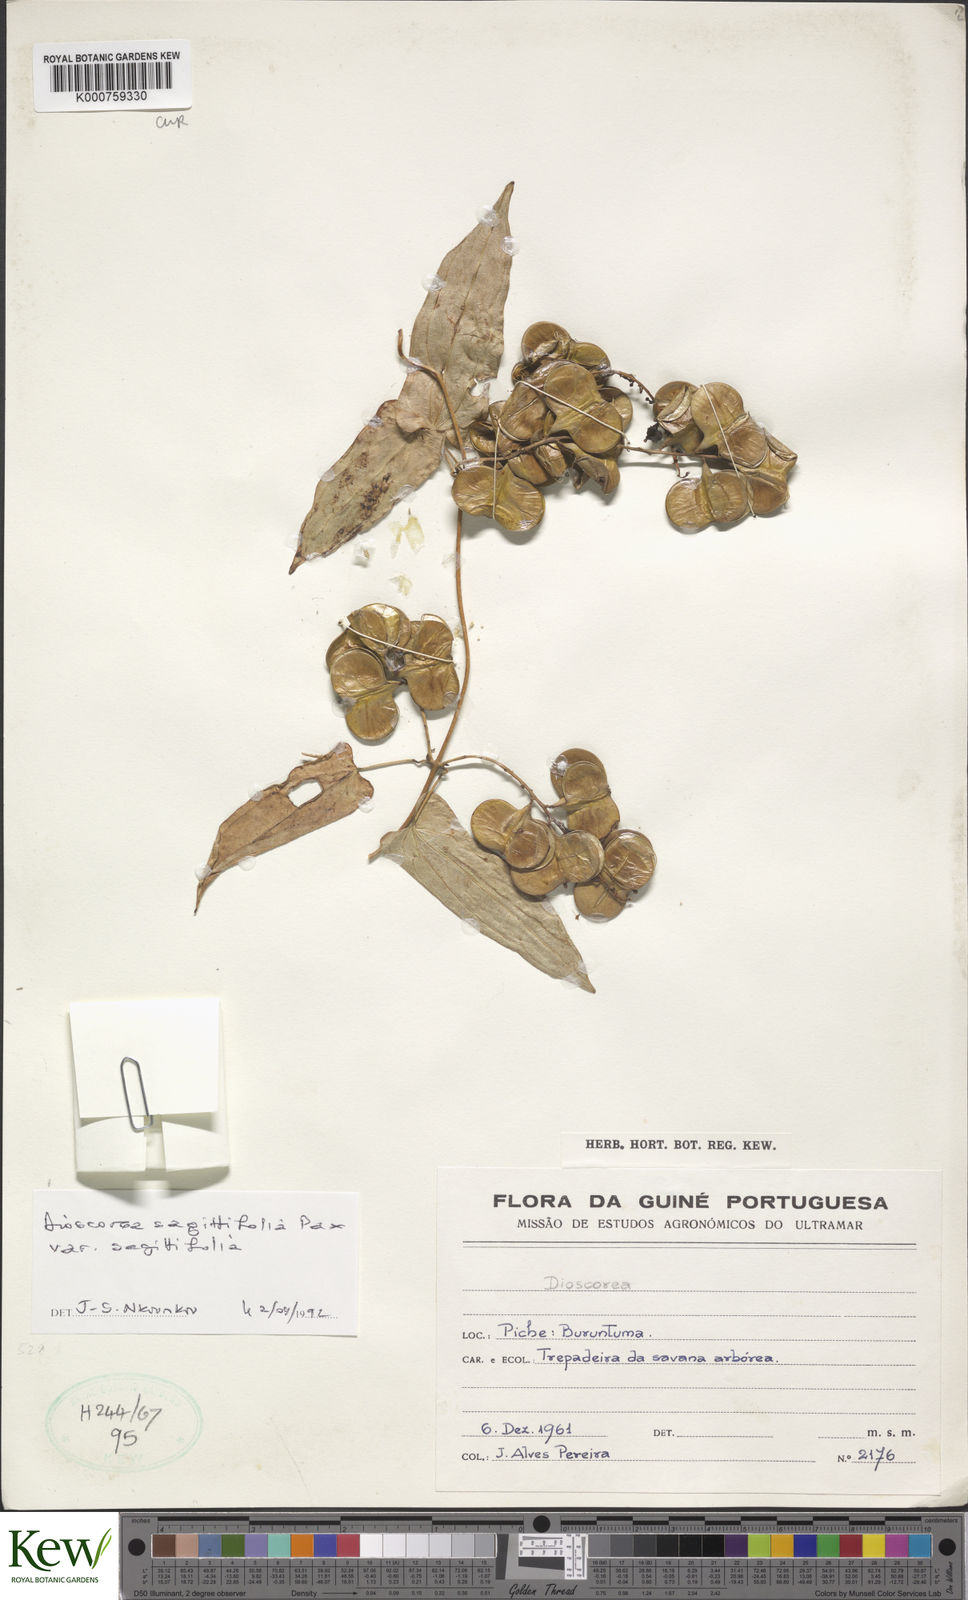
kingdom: Plantae
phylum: Tracheophyta
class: Liliopsida
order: Dioscoreales
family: Dioscoreaceae
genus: Dioscorea
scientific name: Dioscorea sagittifolia
